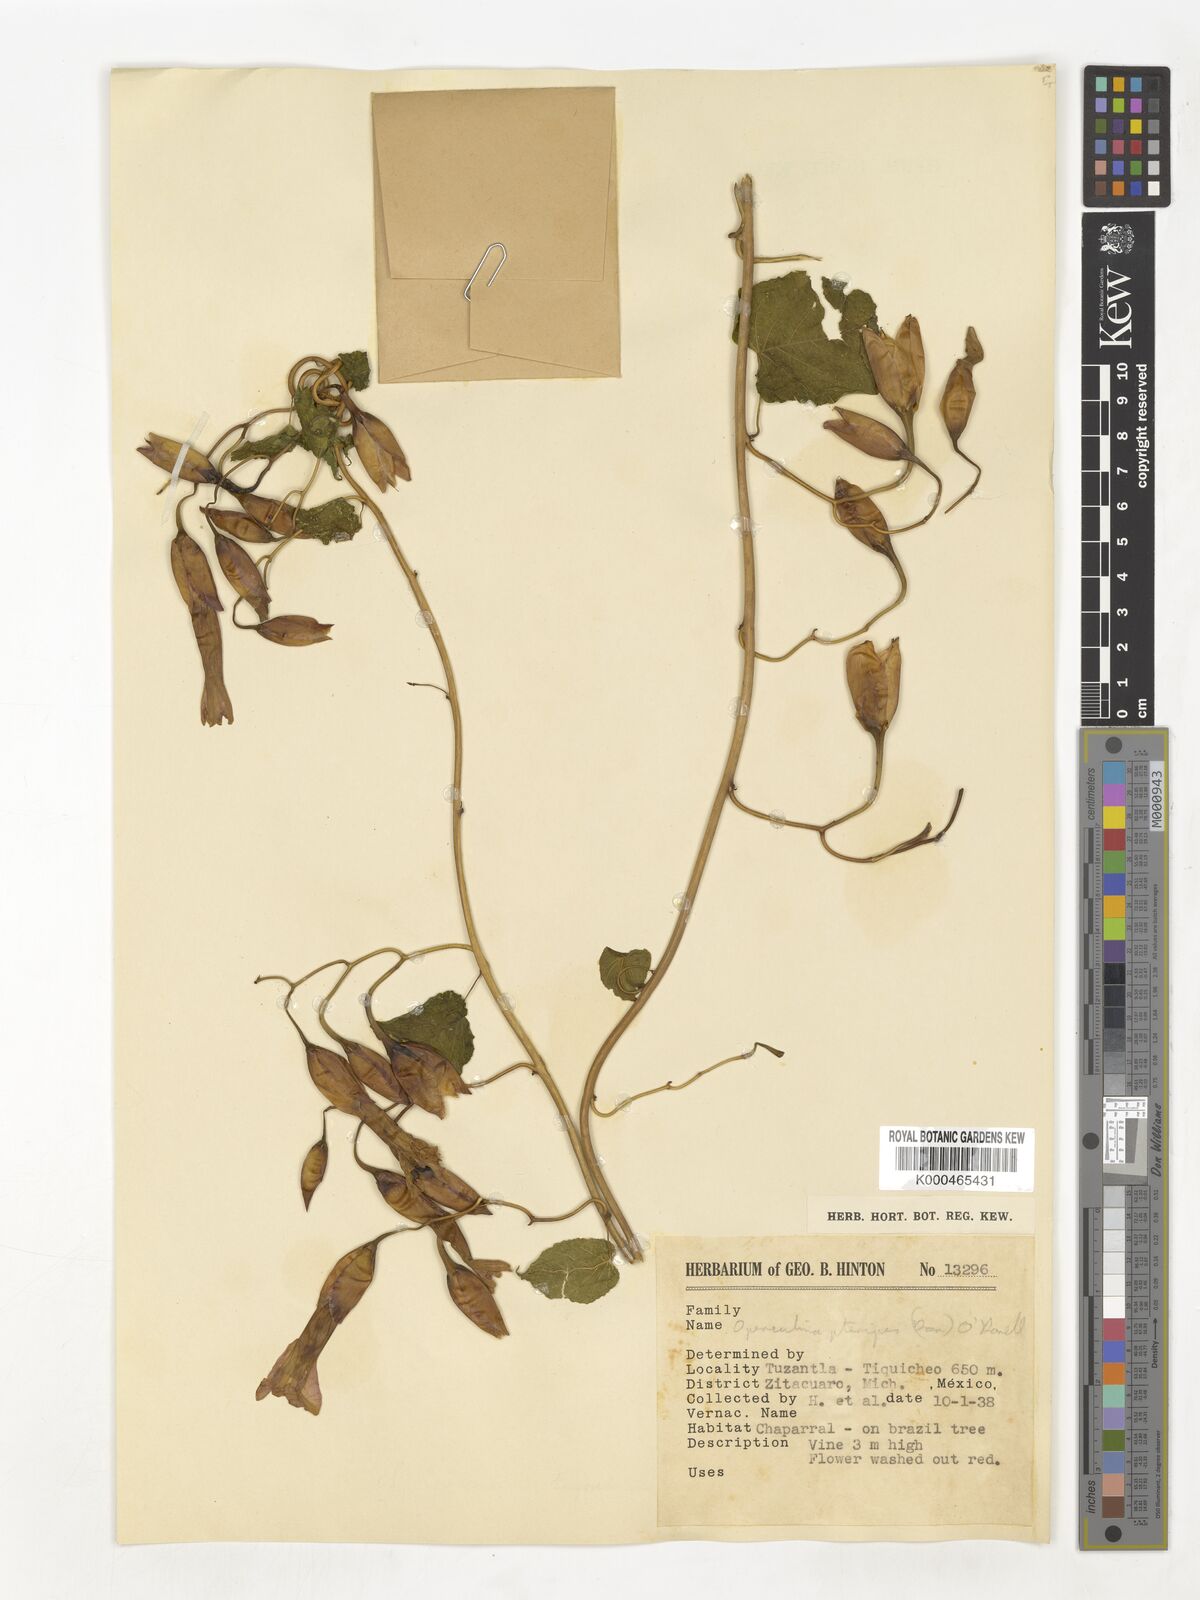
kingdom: Plantae
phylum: Tracheophyta
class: Magnoliopsida
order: Solanales
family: Convolvulaceae
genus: Operculina
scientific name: Operculina
